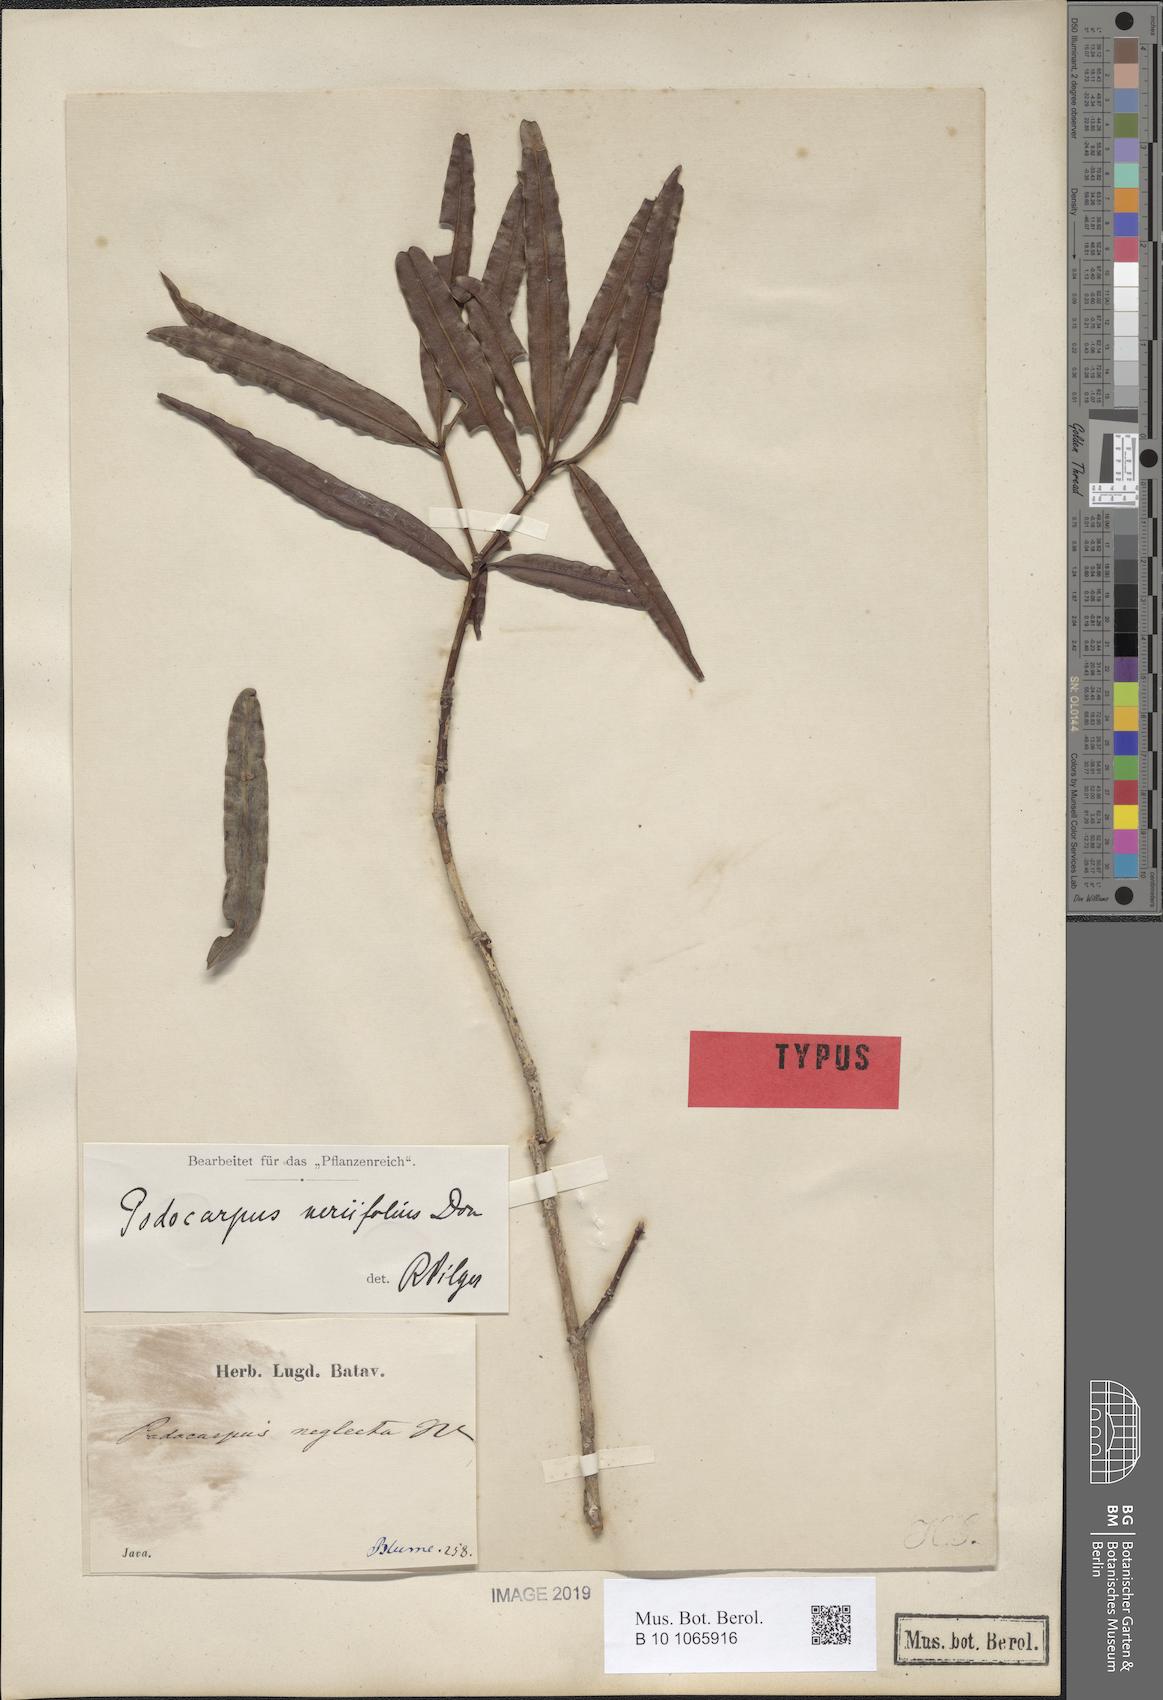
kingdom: Plantae
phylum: Tracheophyta
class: Pinopsida
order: Pinales
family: Podocarpaceae
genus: Podocarpus
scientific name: Podocarpus neriifolius
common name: Brown pine
